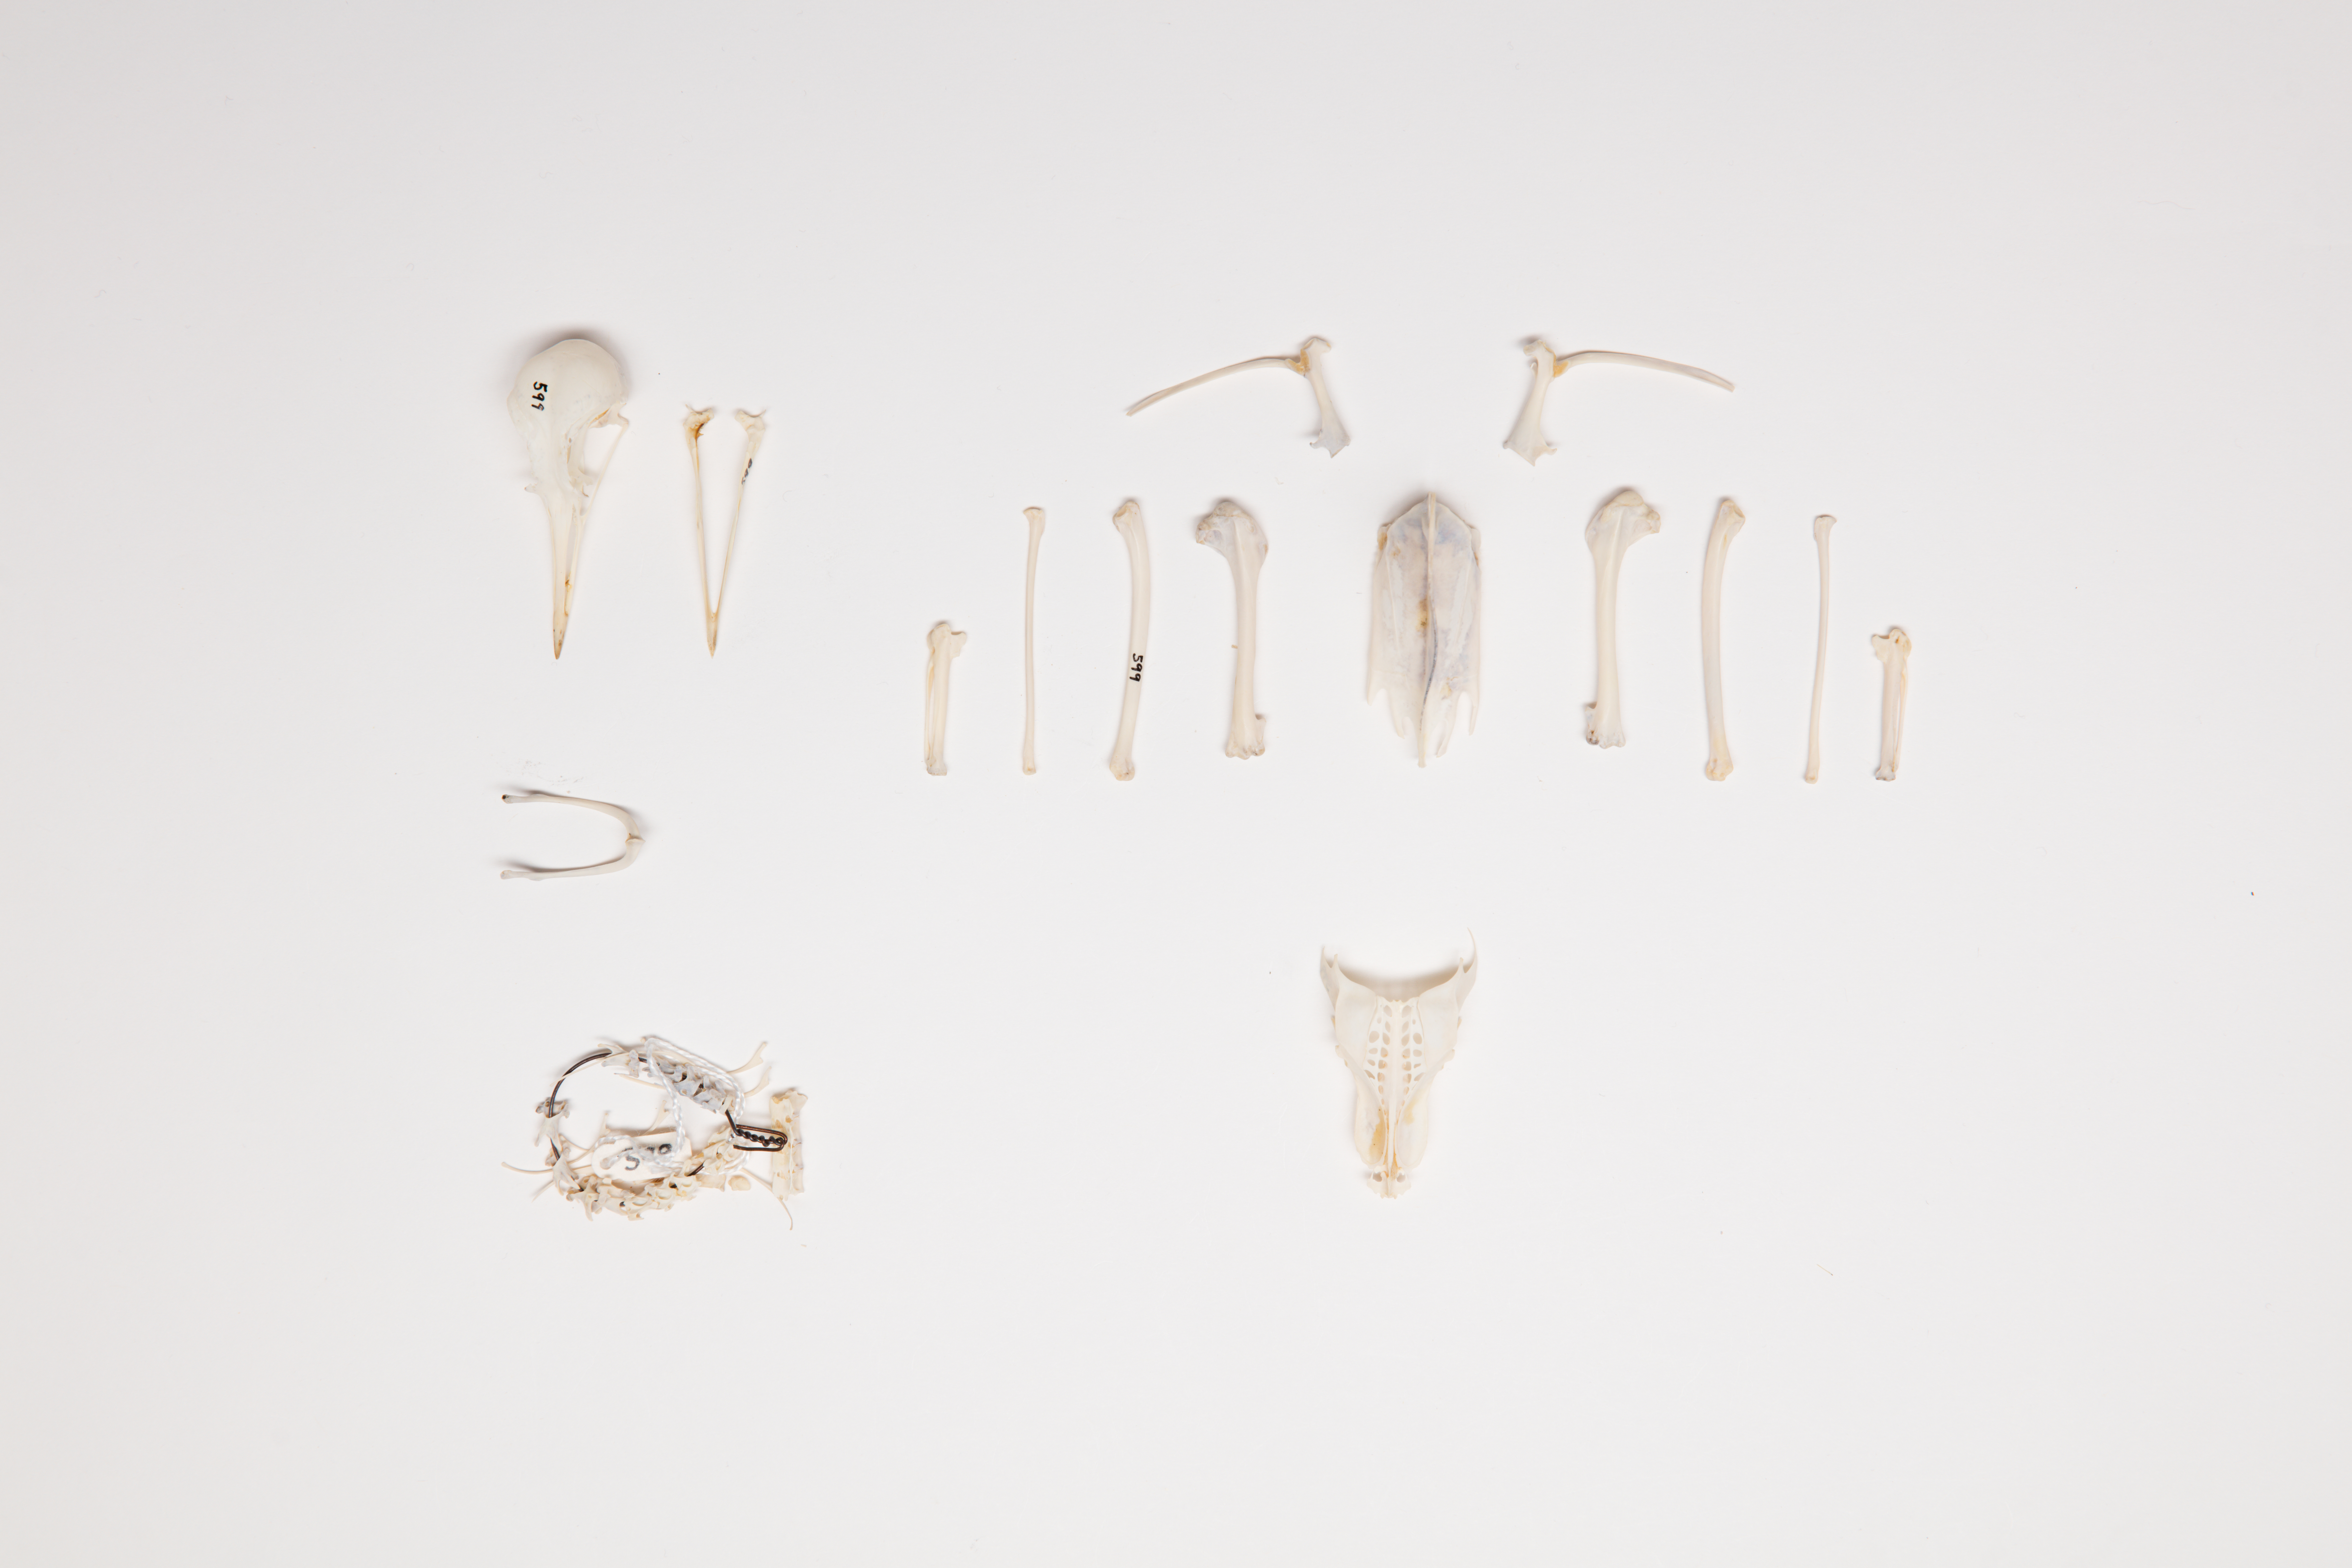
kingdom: Animalia
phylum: Chordata
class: Aves
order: Charadriiformes
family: Charadriidae
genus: Pluvialis
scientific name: Pluvialis fulva
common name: Pacific golden plover
